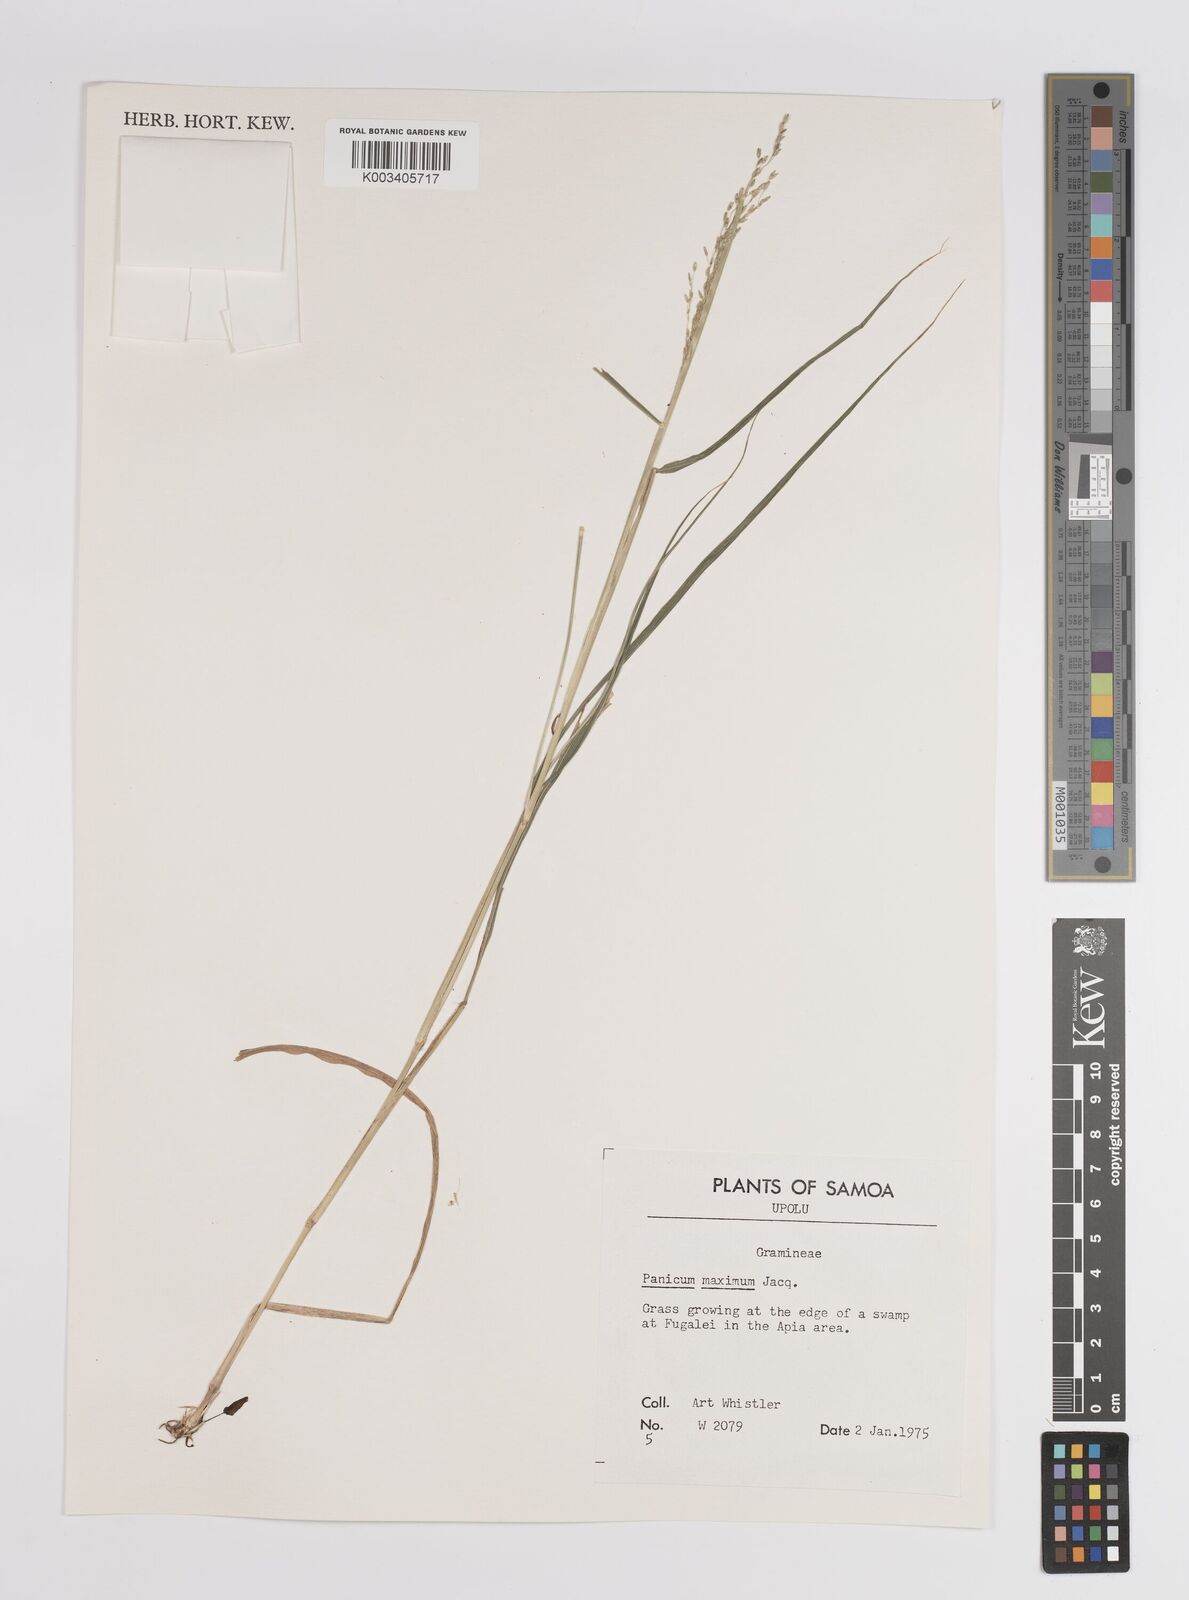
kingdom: Plantae
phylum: Tracheophyta
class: Liliopsida
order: Poales
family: Poaceae
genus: Megathyrsus
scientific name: Megathyrsus maximus
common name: Guineagrass
